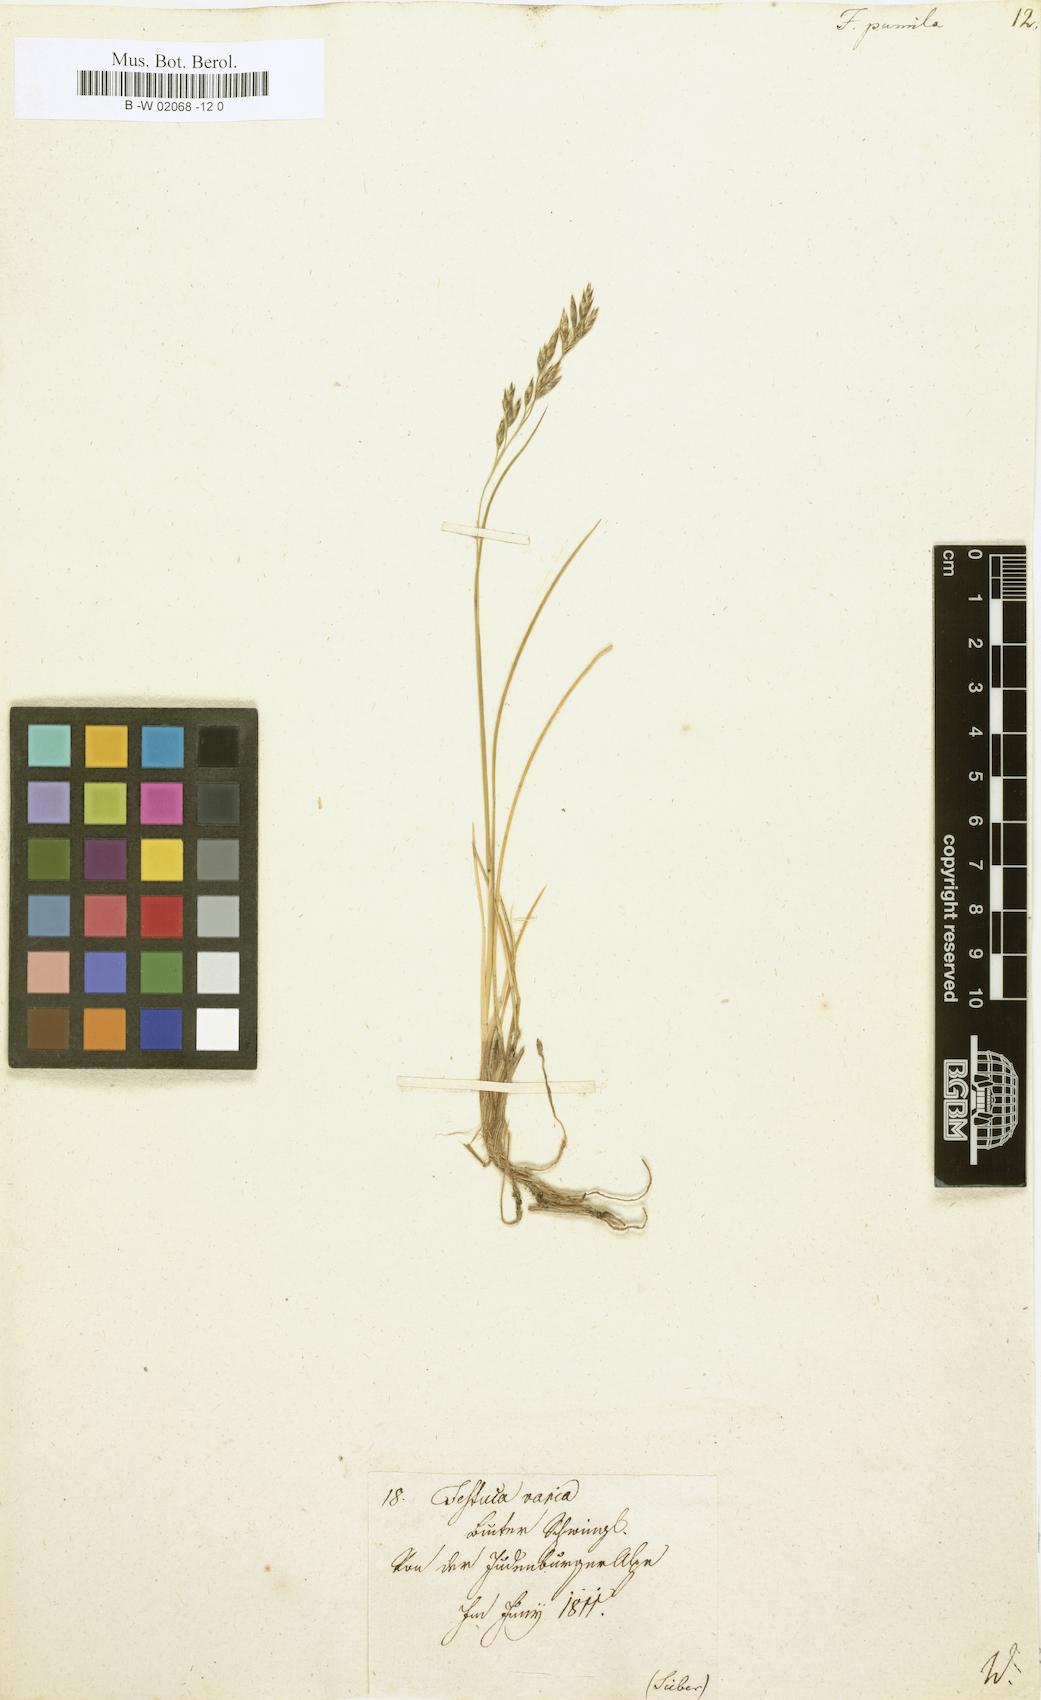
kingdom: Plantae
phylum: Tracheophyta
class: Liliopsida
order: Poales
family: Poaceae
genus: Festuca
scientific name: Festuca
